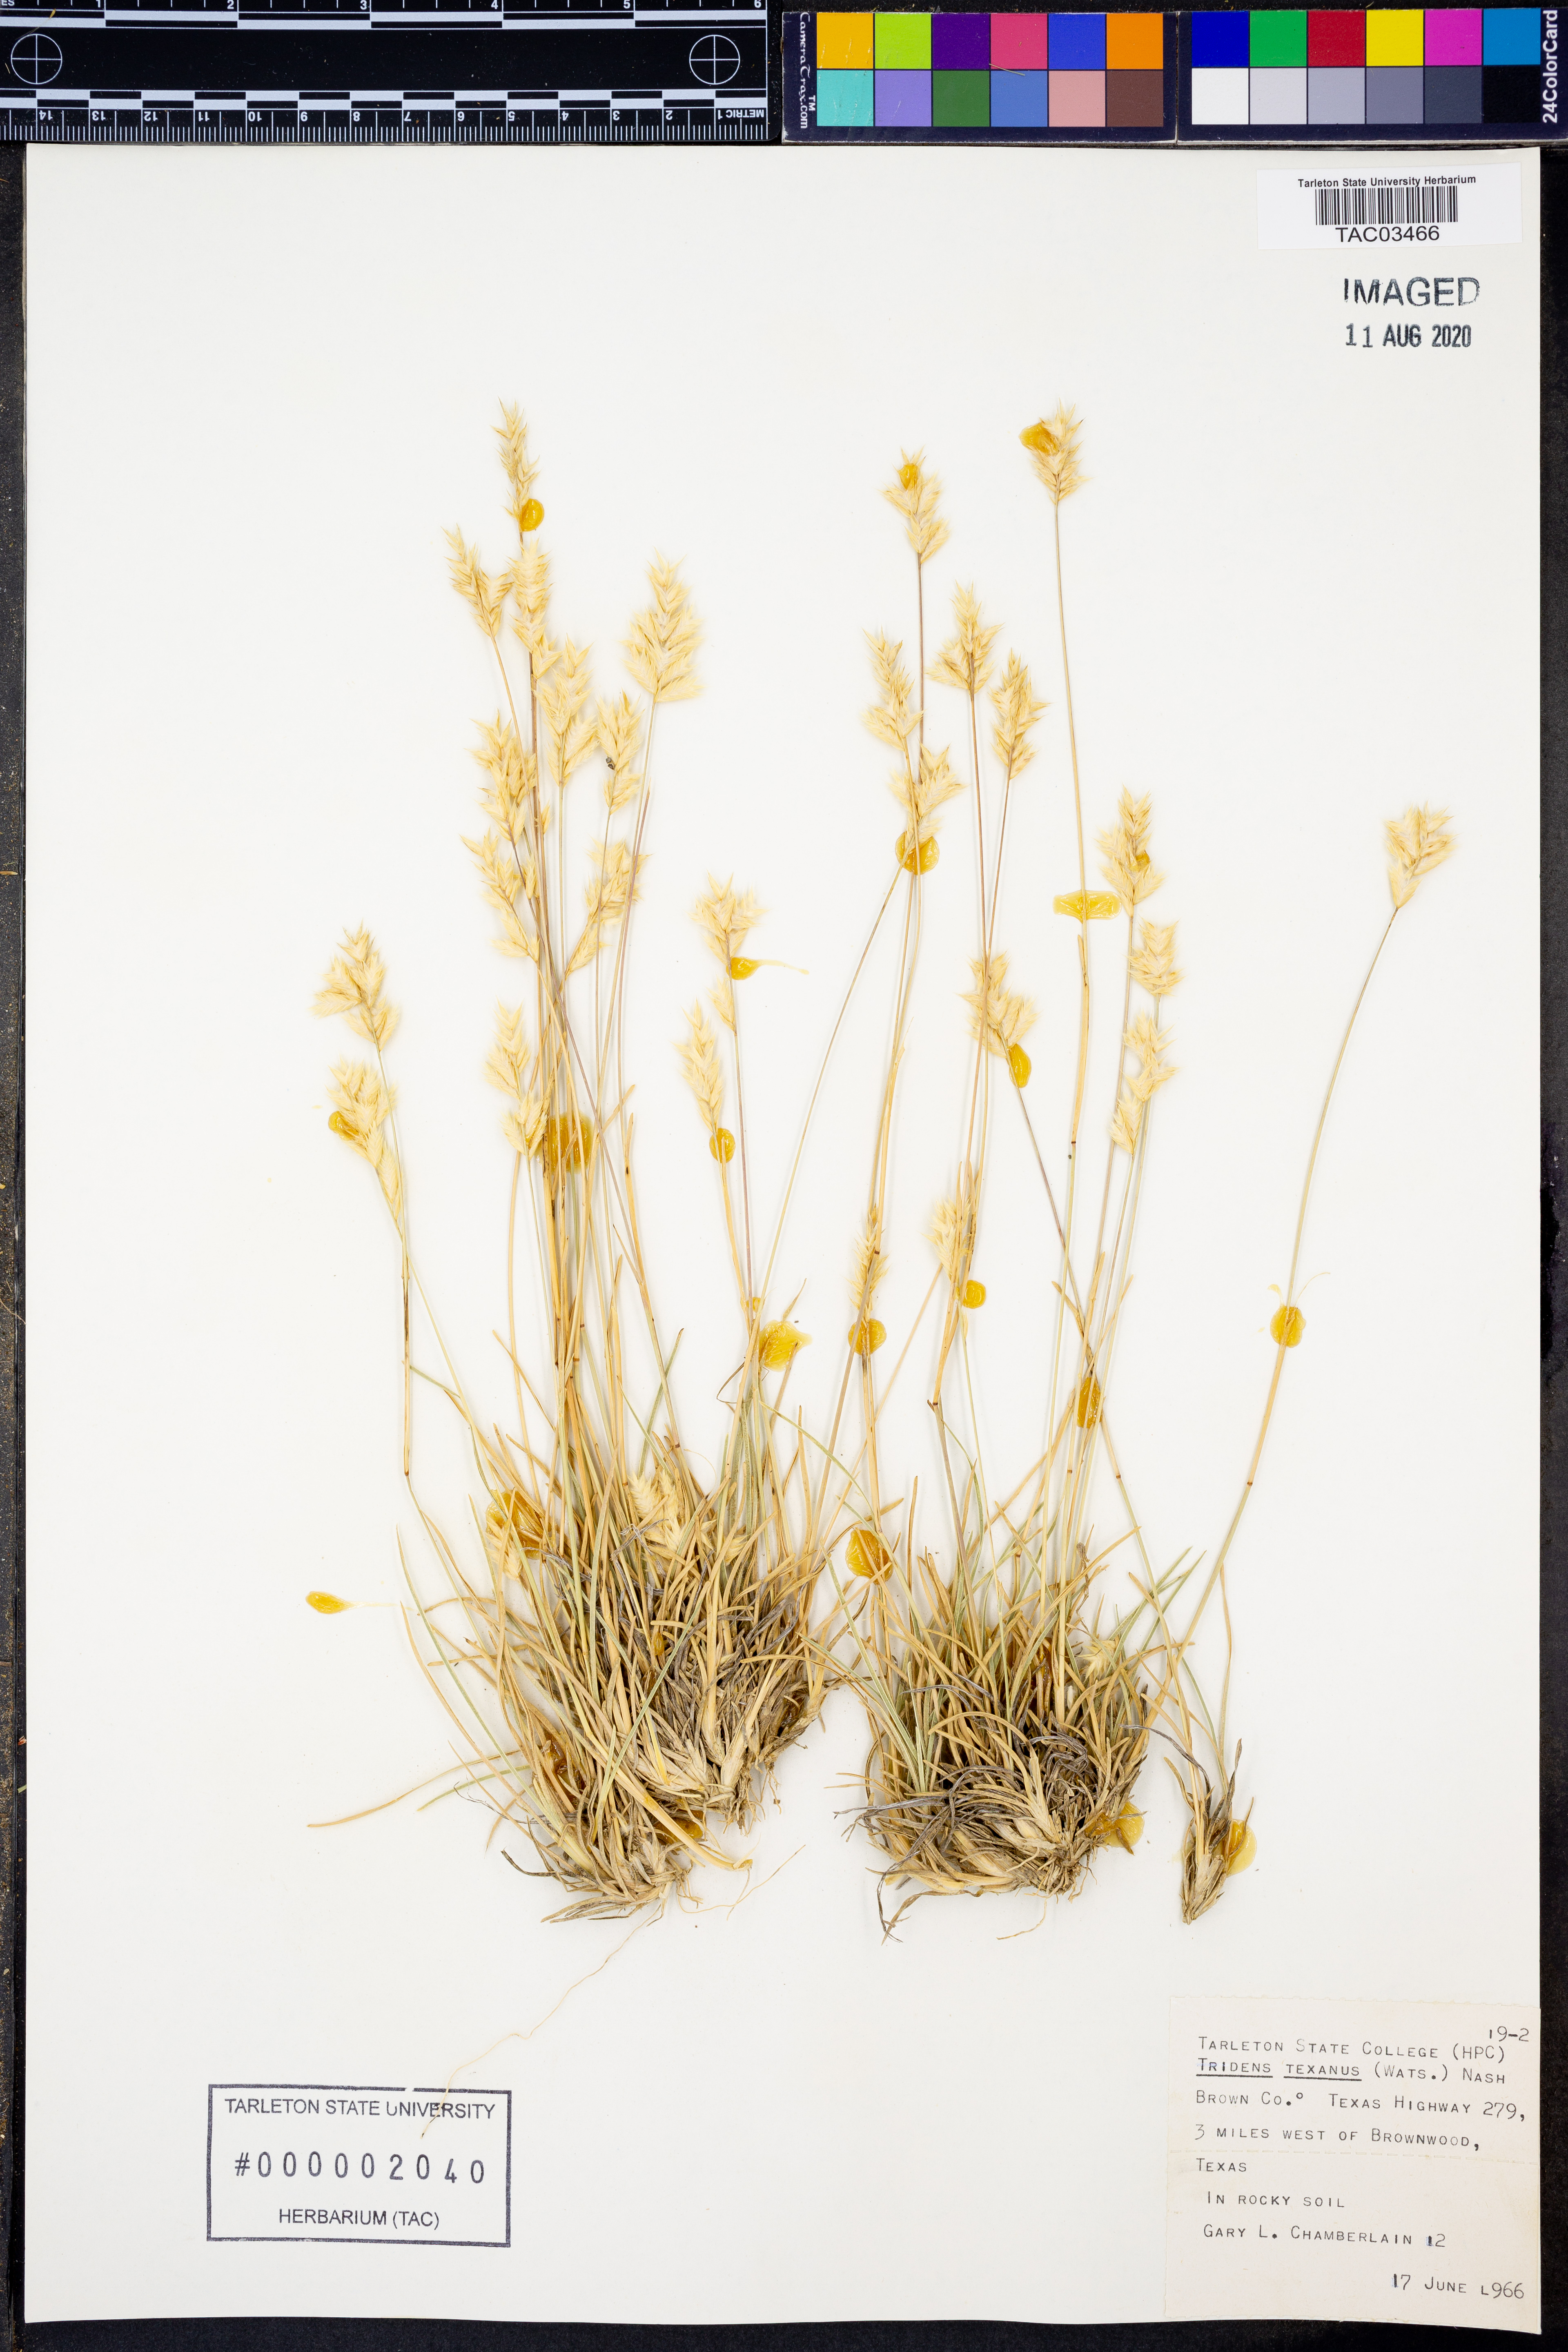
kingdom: Plantae
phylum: Tracheophyta
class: Liliopsida
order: Poales
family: Poaceae
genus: Tridens
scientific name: Tridens texanus
